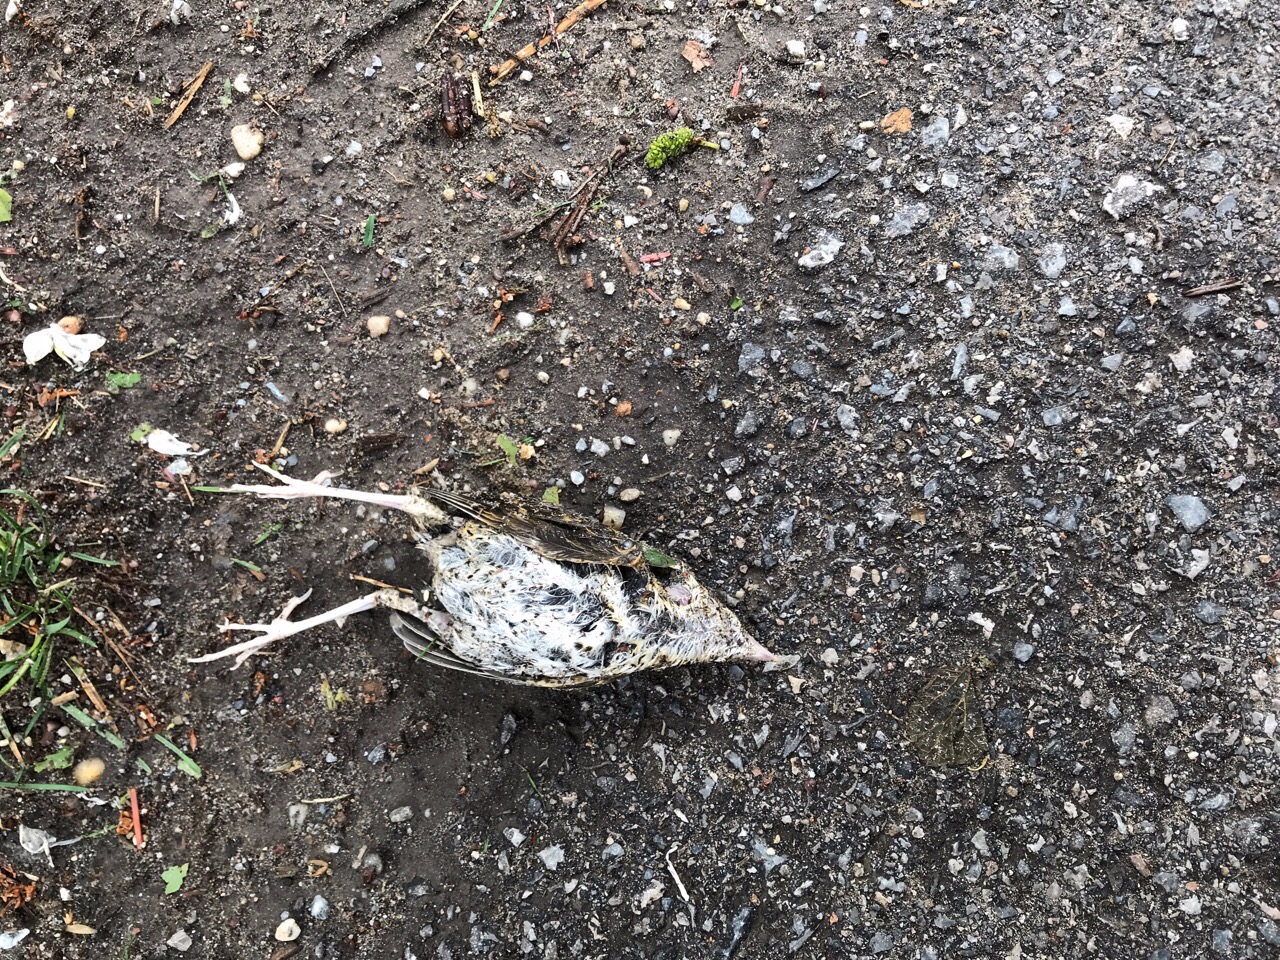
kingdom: Animalia
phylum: Chordata
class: Aves
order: Passeriformes
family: Turdidae
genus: Turdus
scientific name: Turdus philomelos
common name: Song thrush
